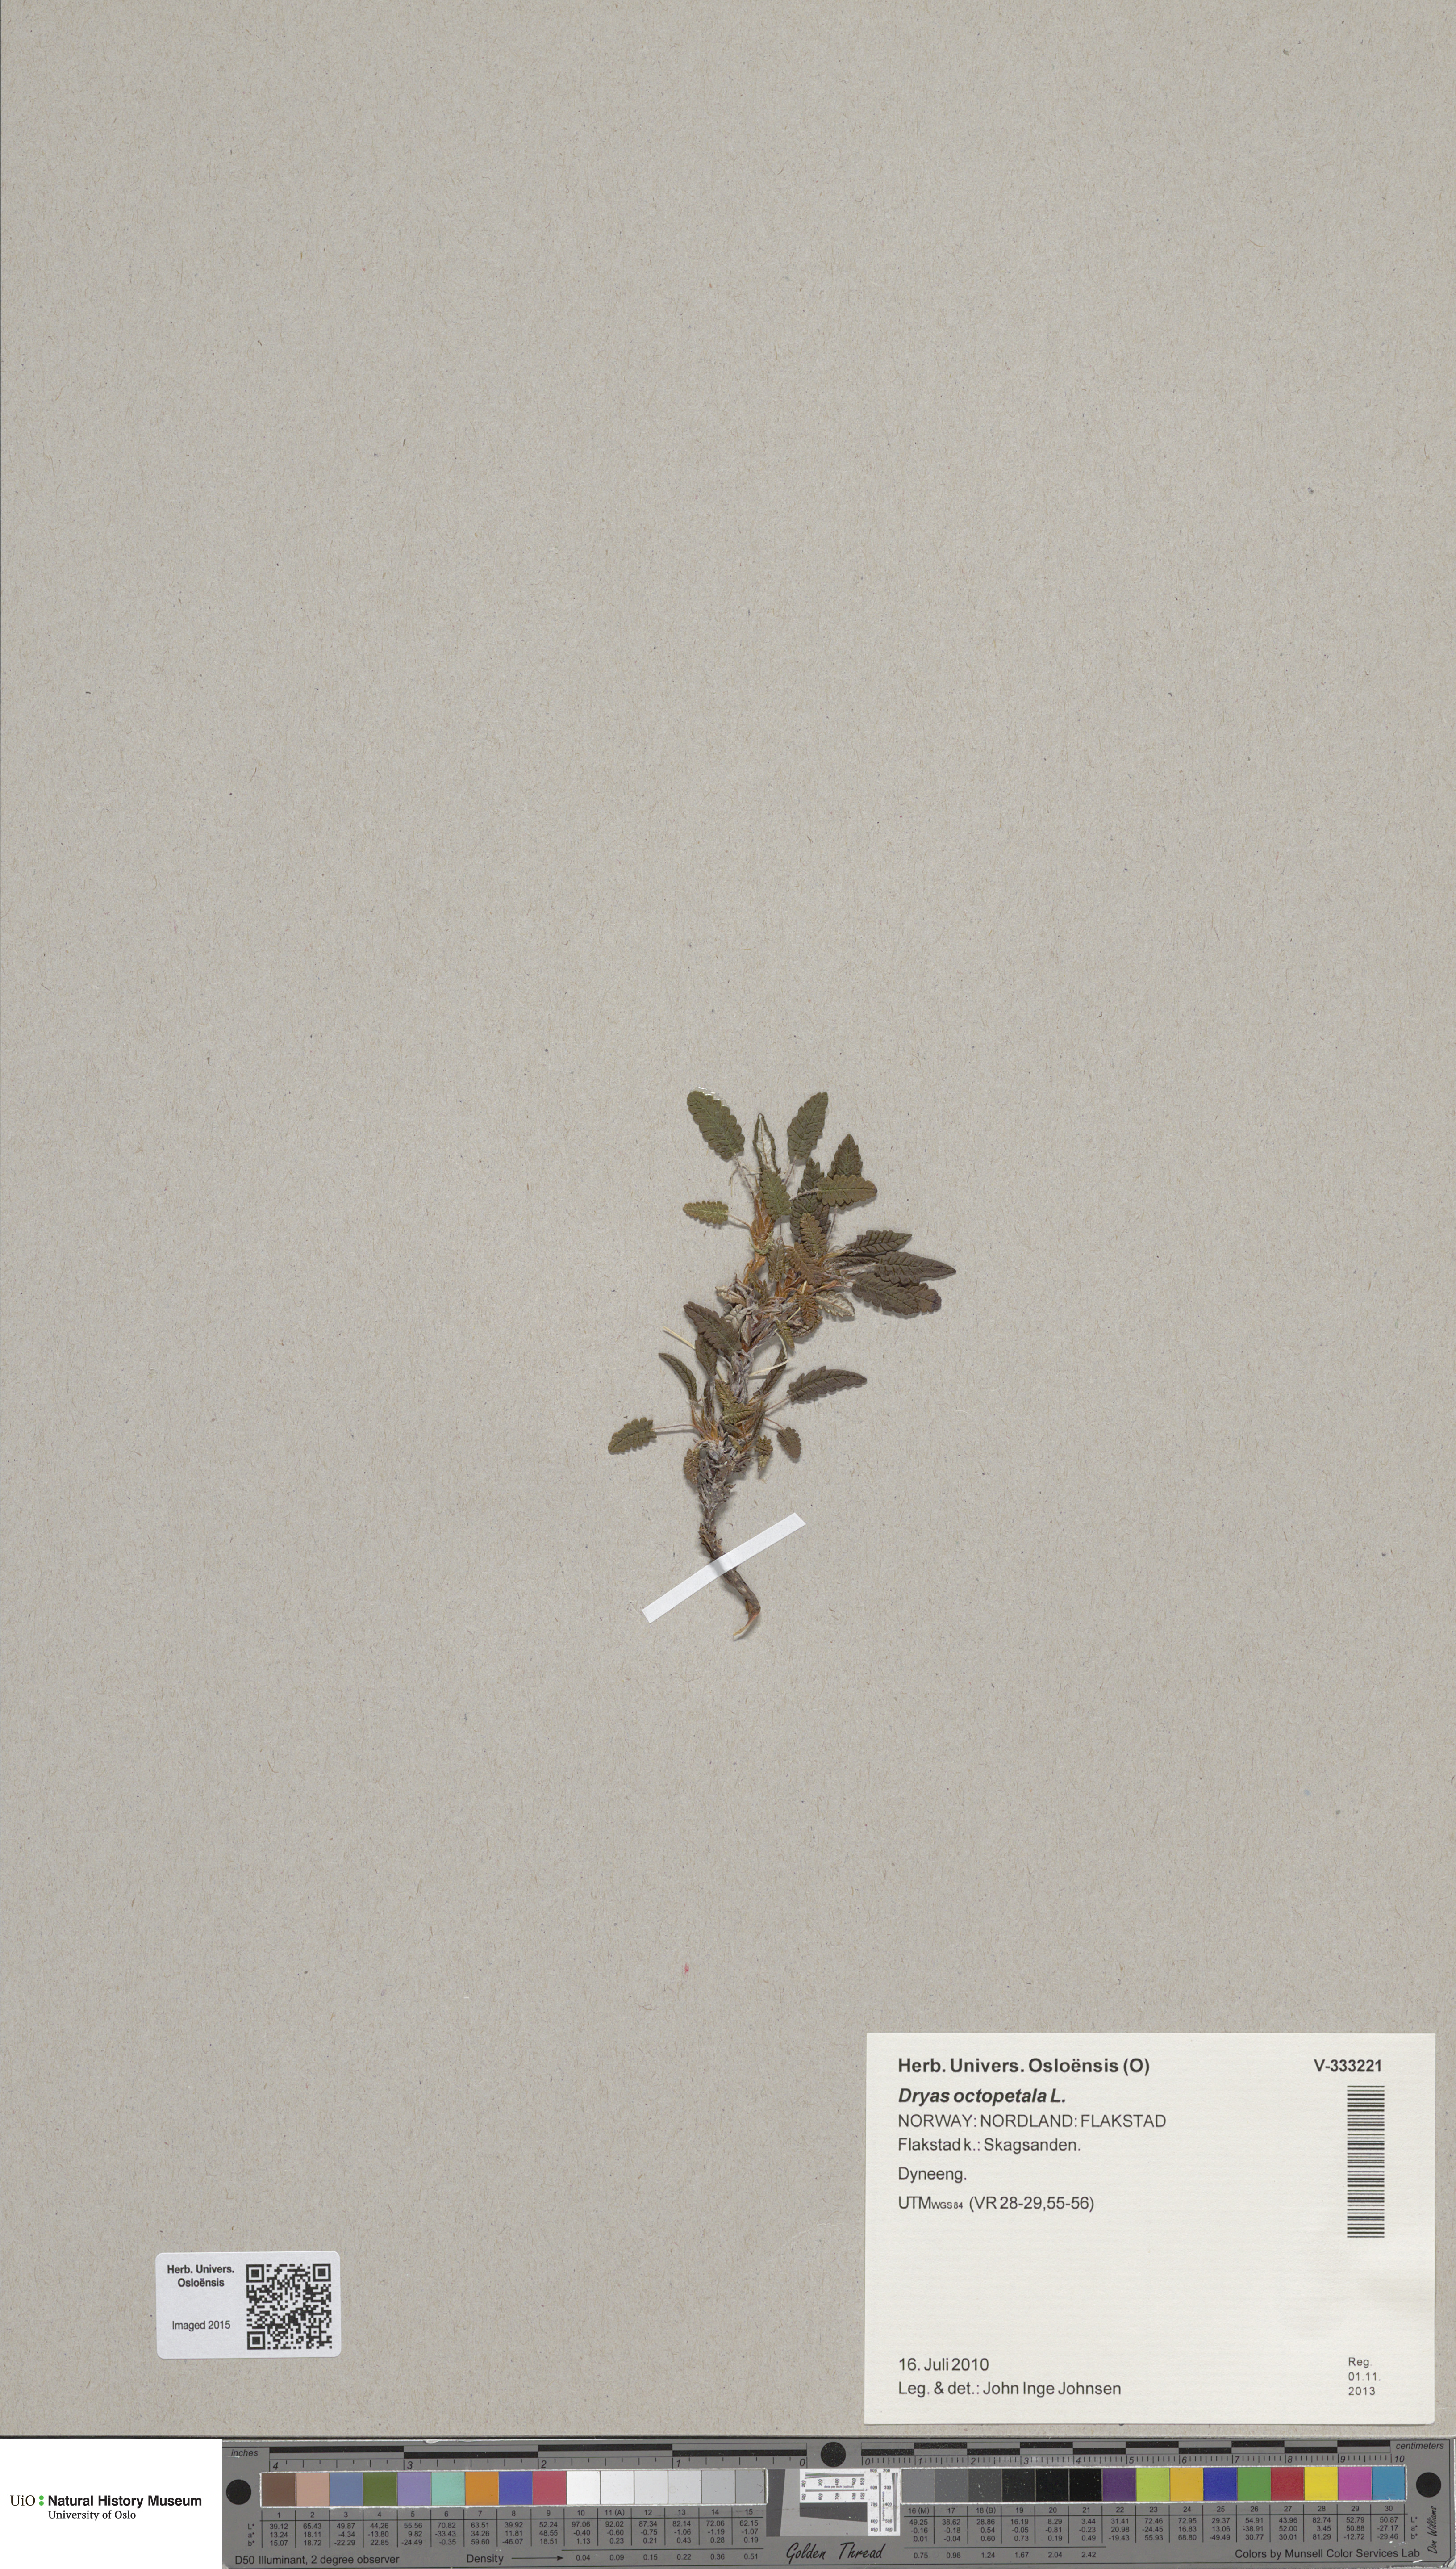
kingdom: Plantae
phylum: Tracheophyta
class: Magnoliopsida
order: Rosales
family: Rosaceae
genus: Dryas
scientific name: Dryas octopetala
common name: Eight-petal mountain-avens
